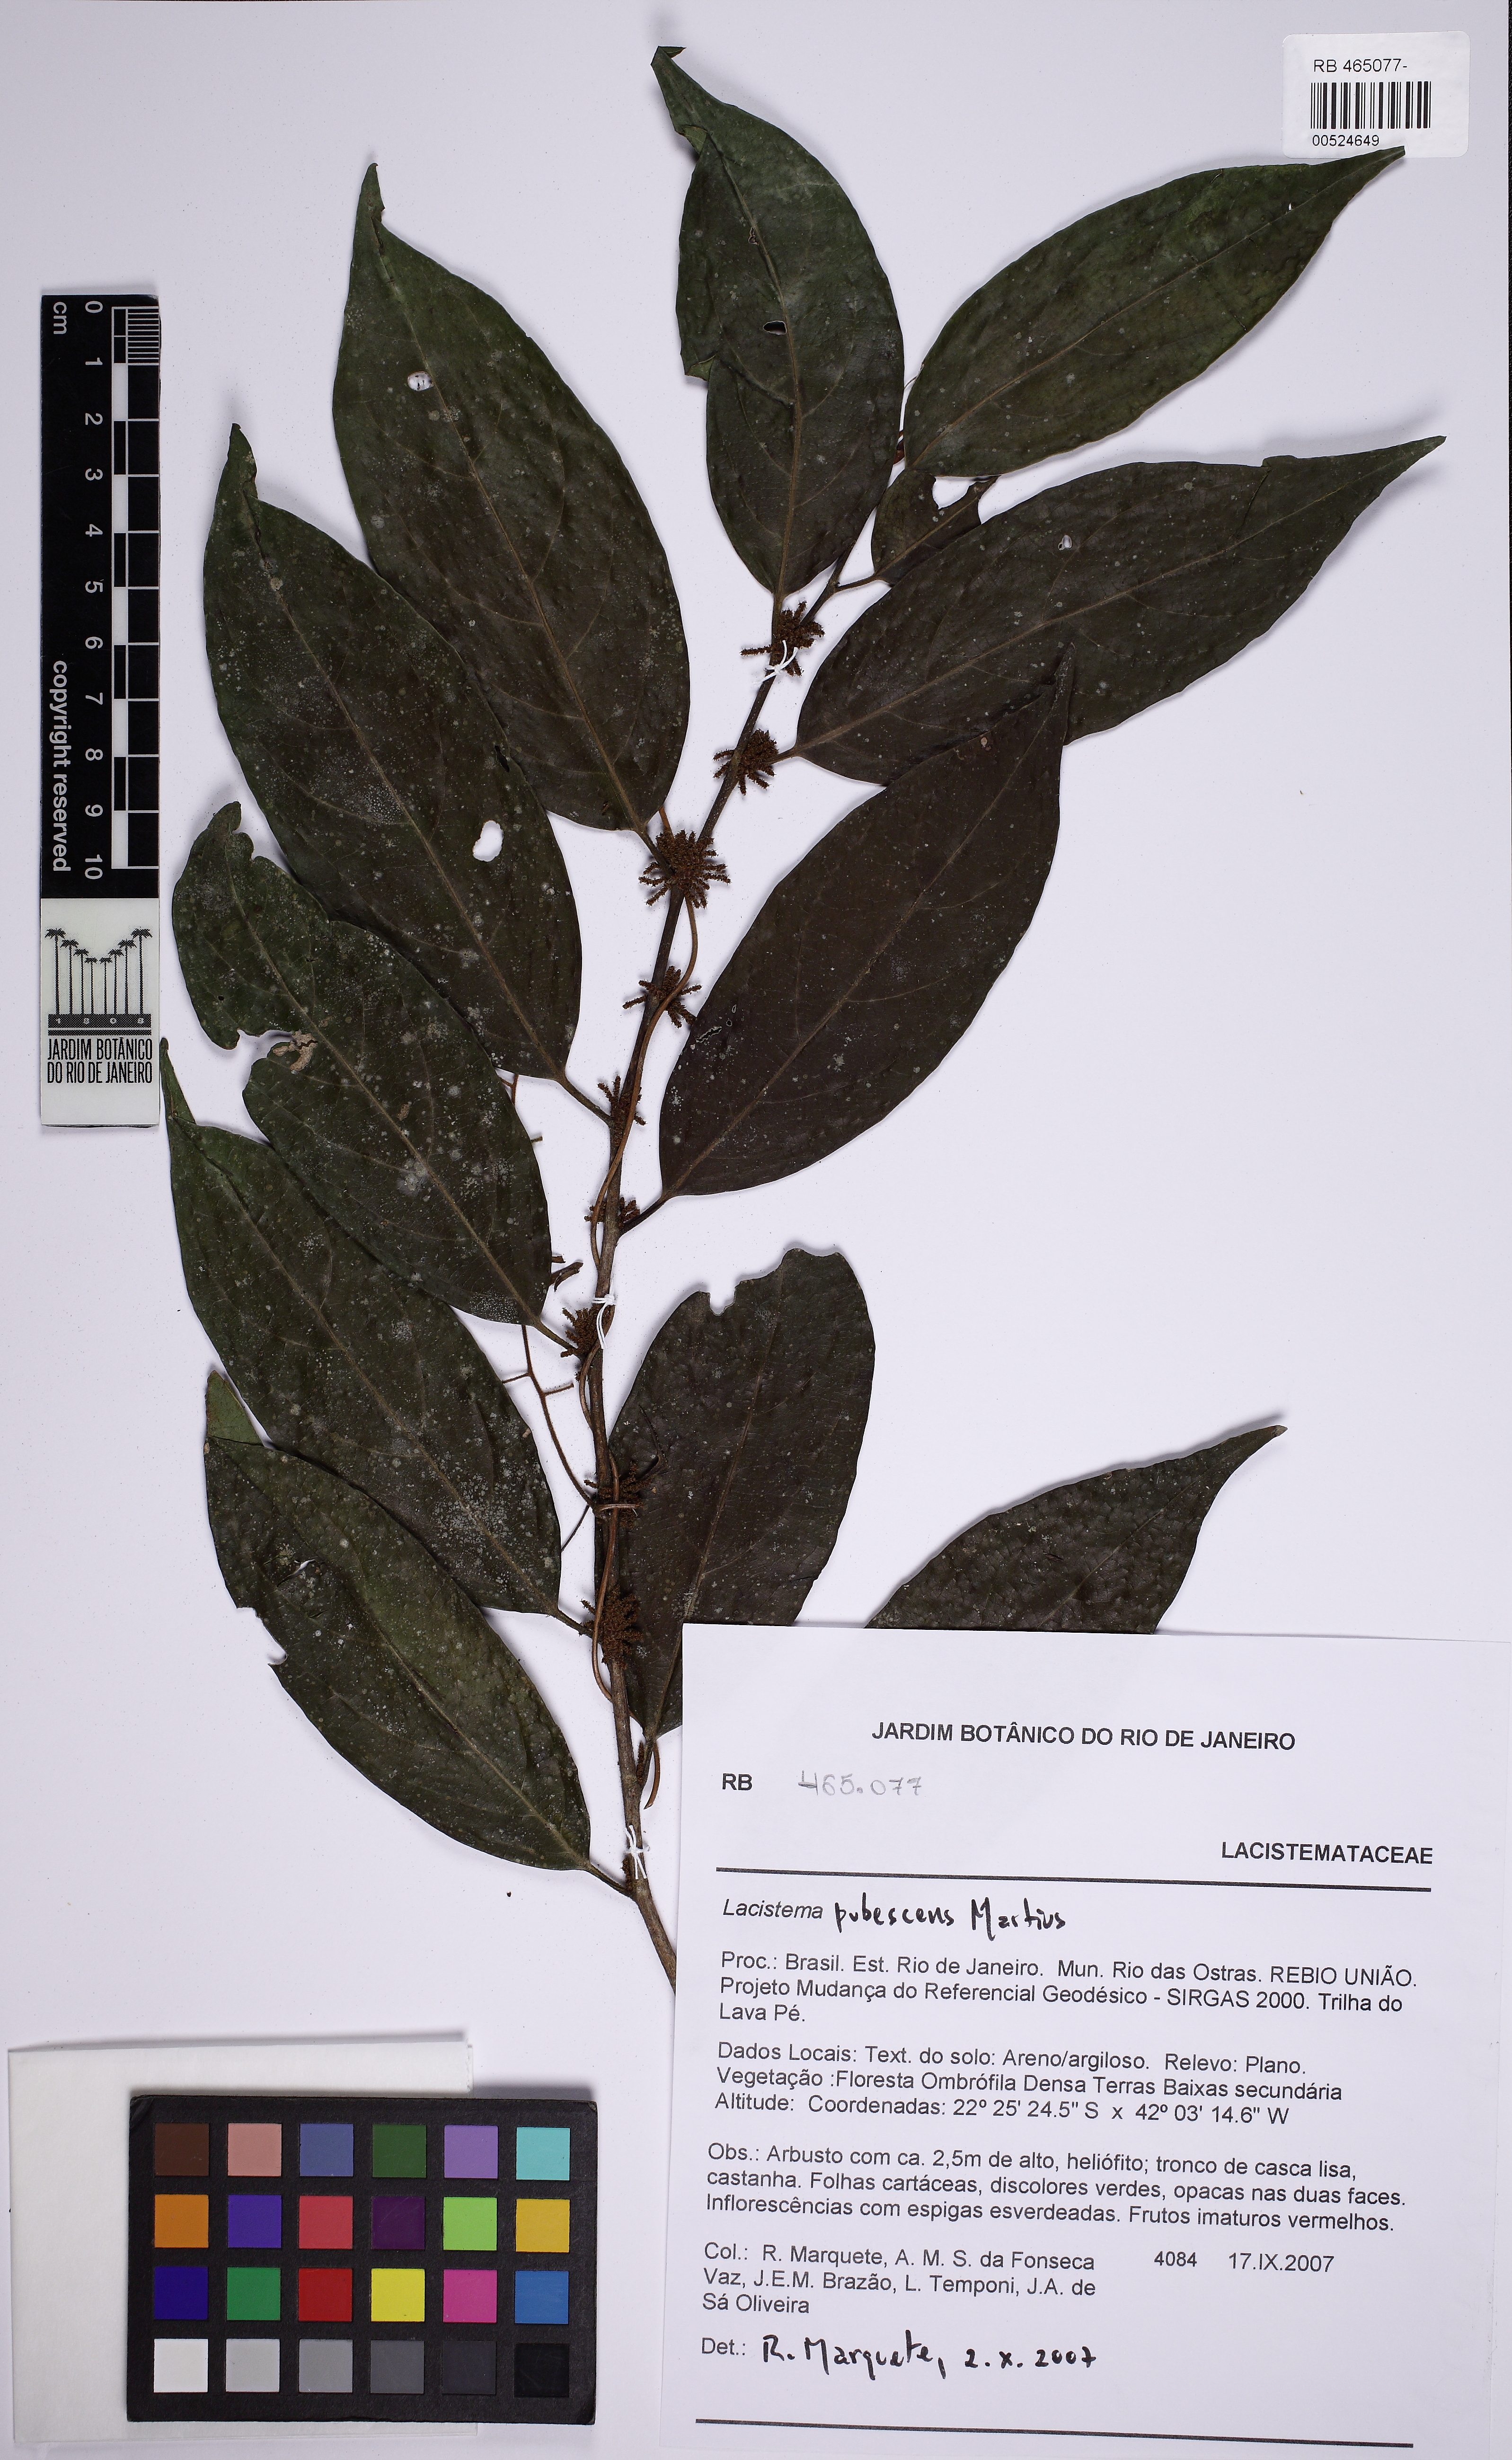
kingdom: Plantae
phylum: Tracheophyta
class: Magnoliopsida
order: Malpighiales
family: Lacistemataceae
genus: Lacistema
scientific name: Lacistema pubescens
